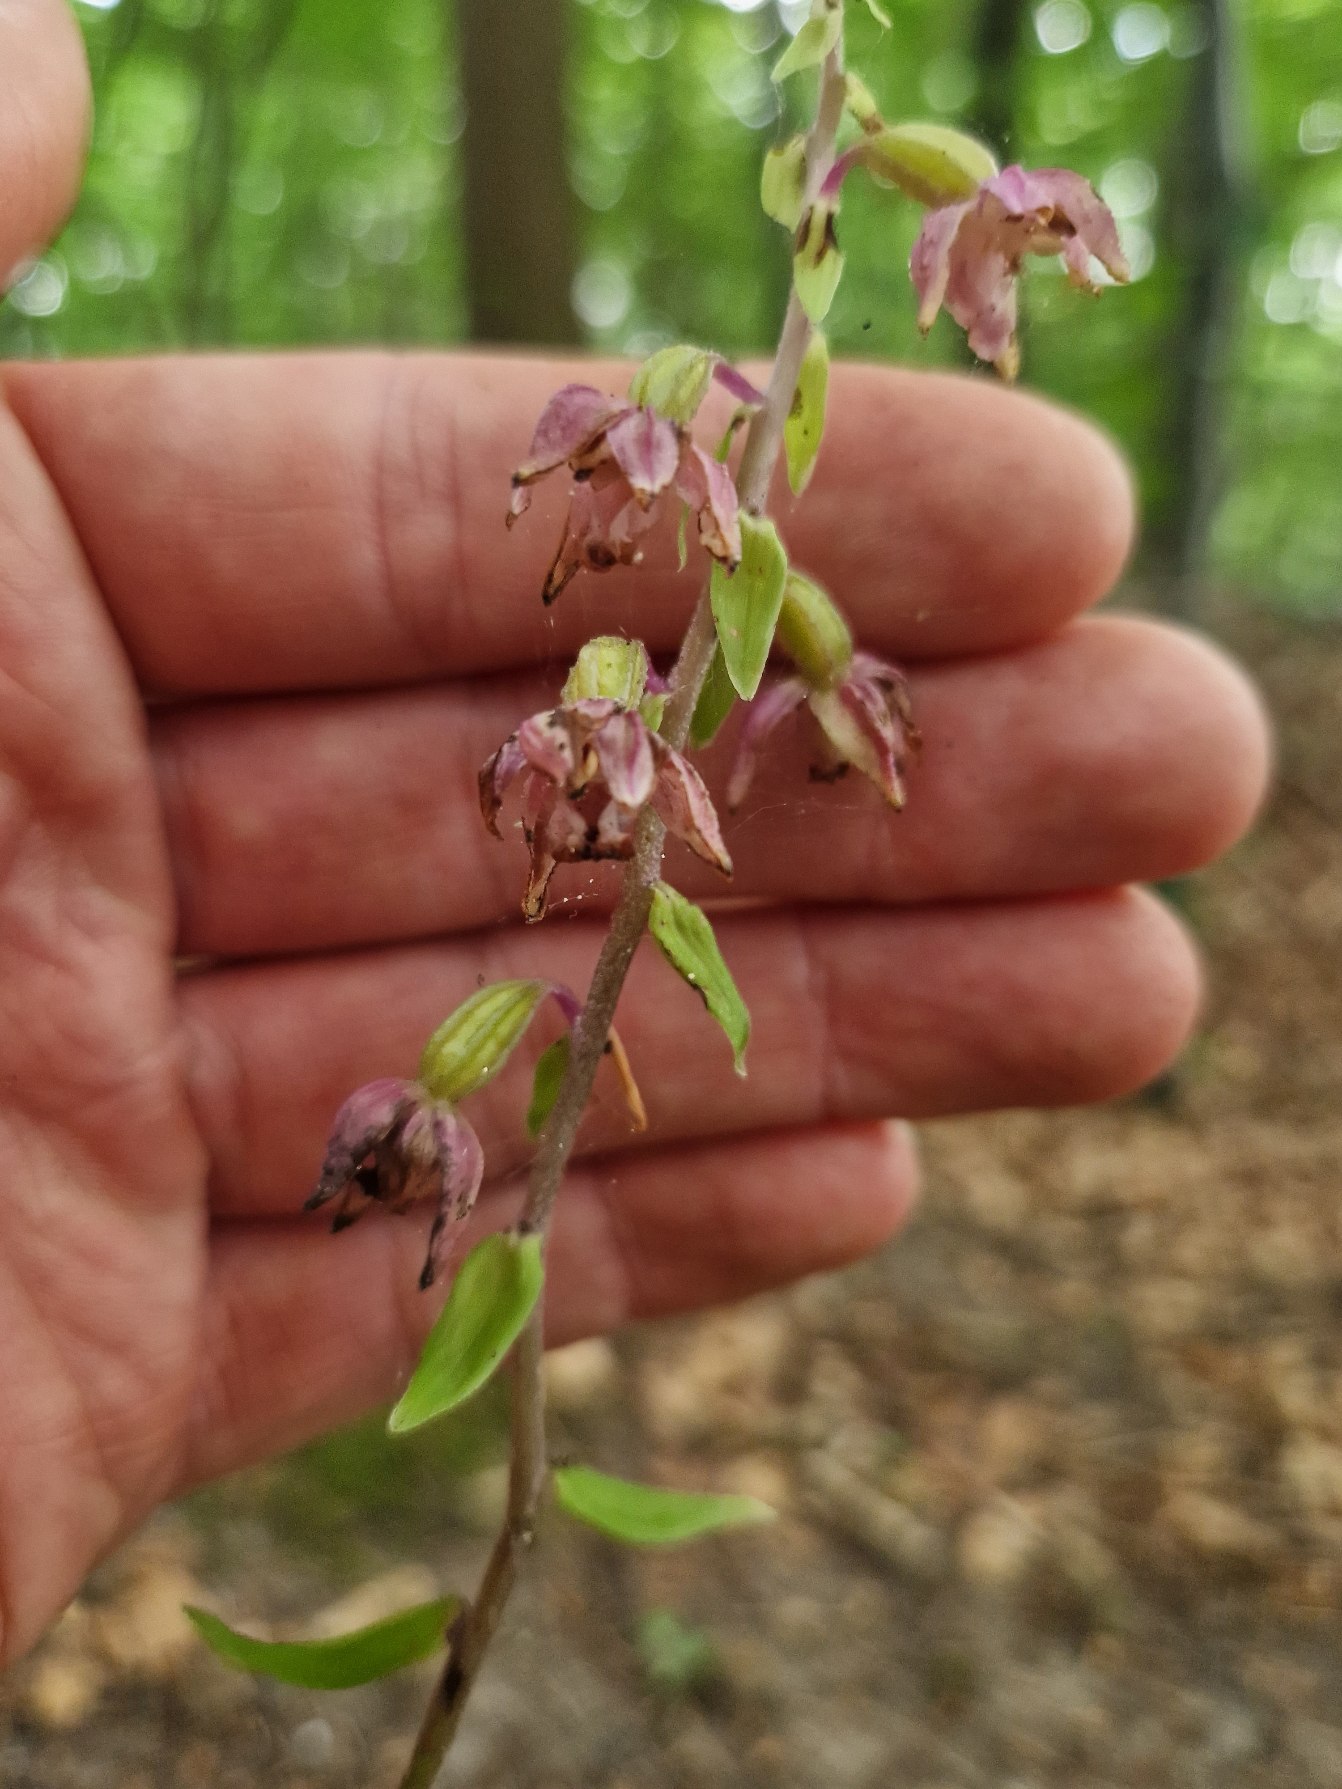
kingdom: Plantae
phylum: Tracheophyta
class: Liliopsida
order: Asparagales
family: Orchidaceae
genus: Epipactis
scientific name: Epipactis helleborine
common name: Skov-hullæbe
